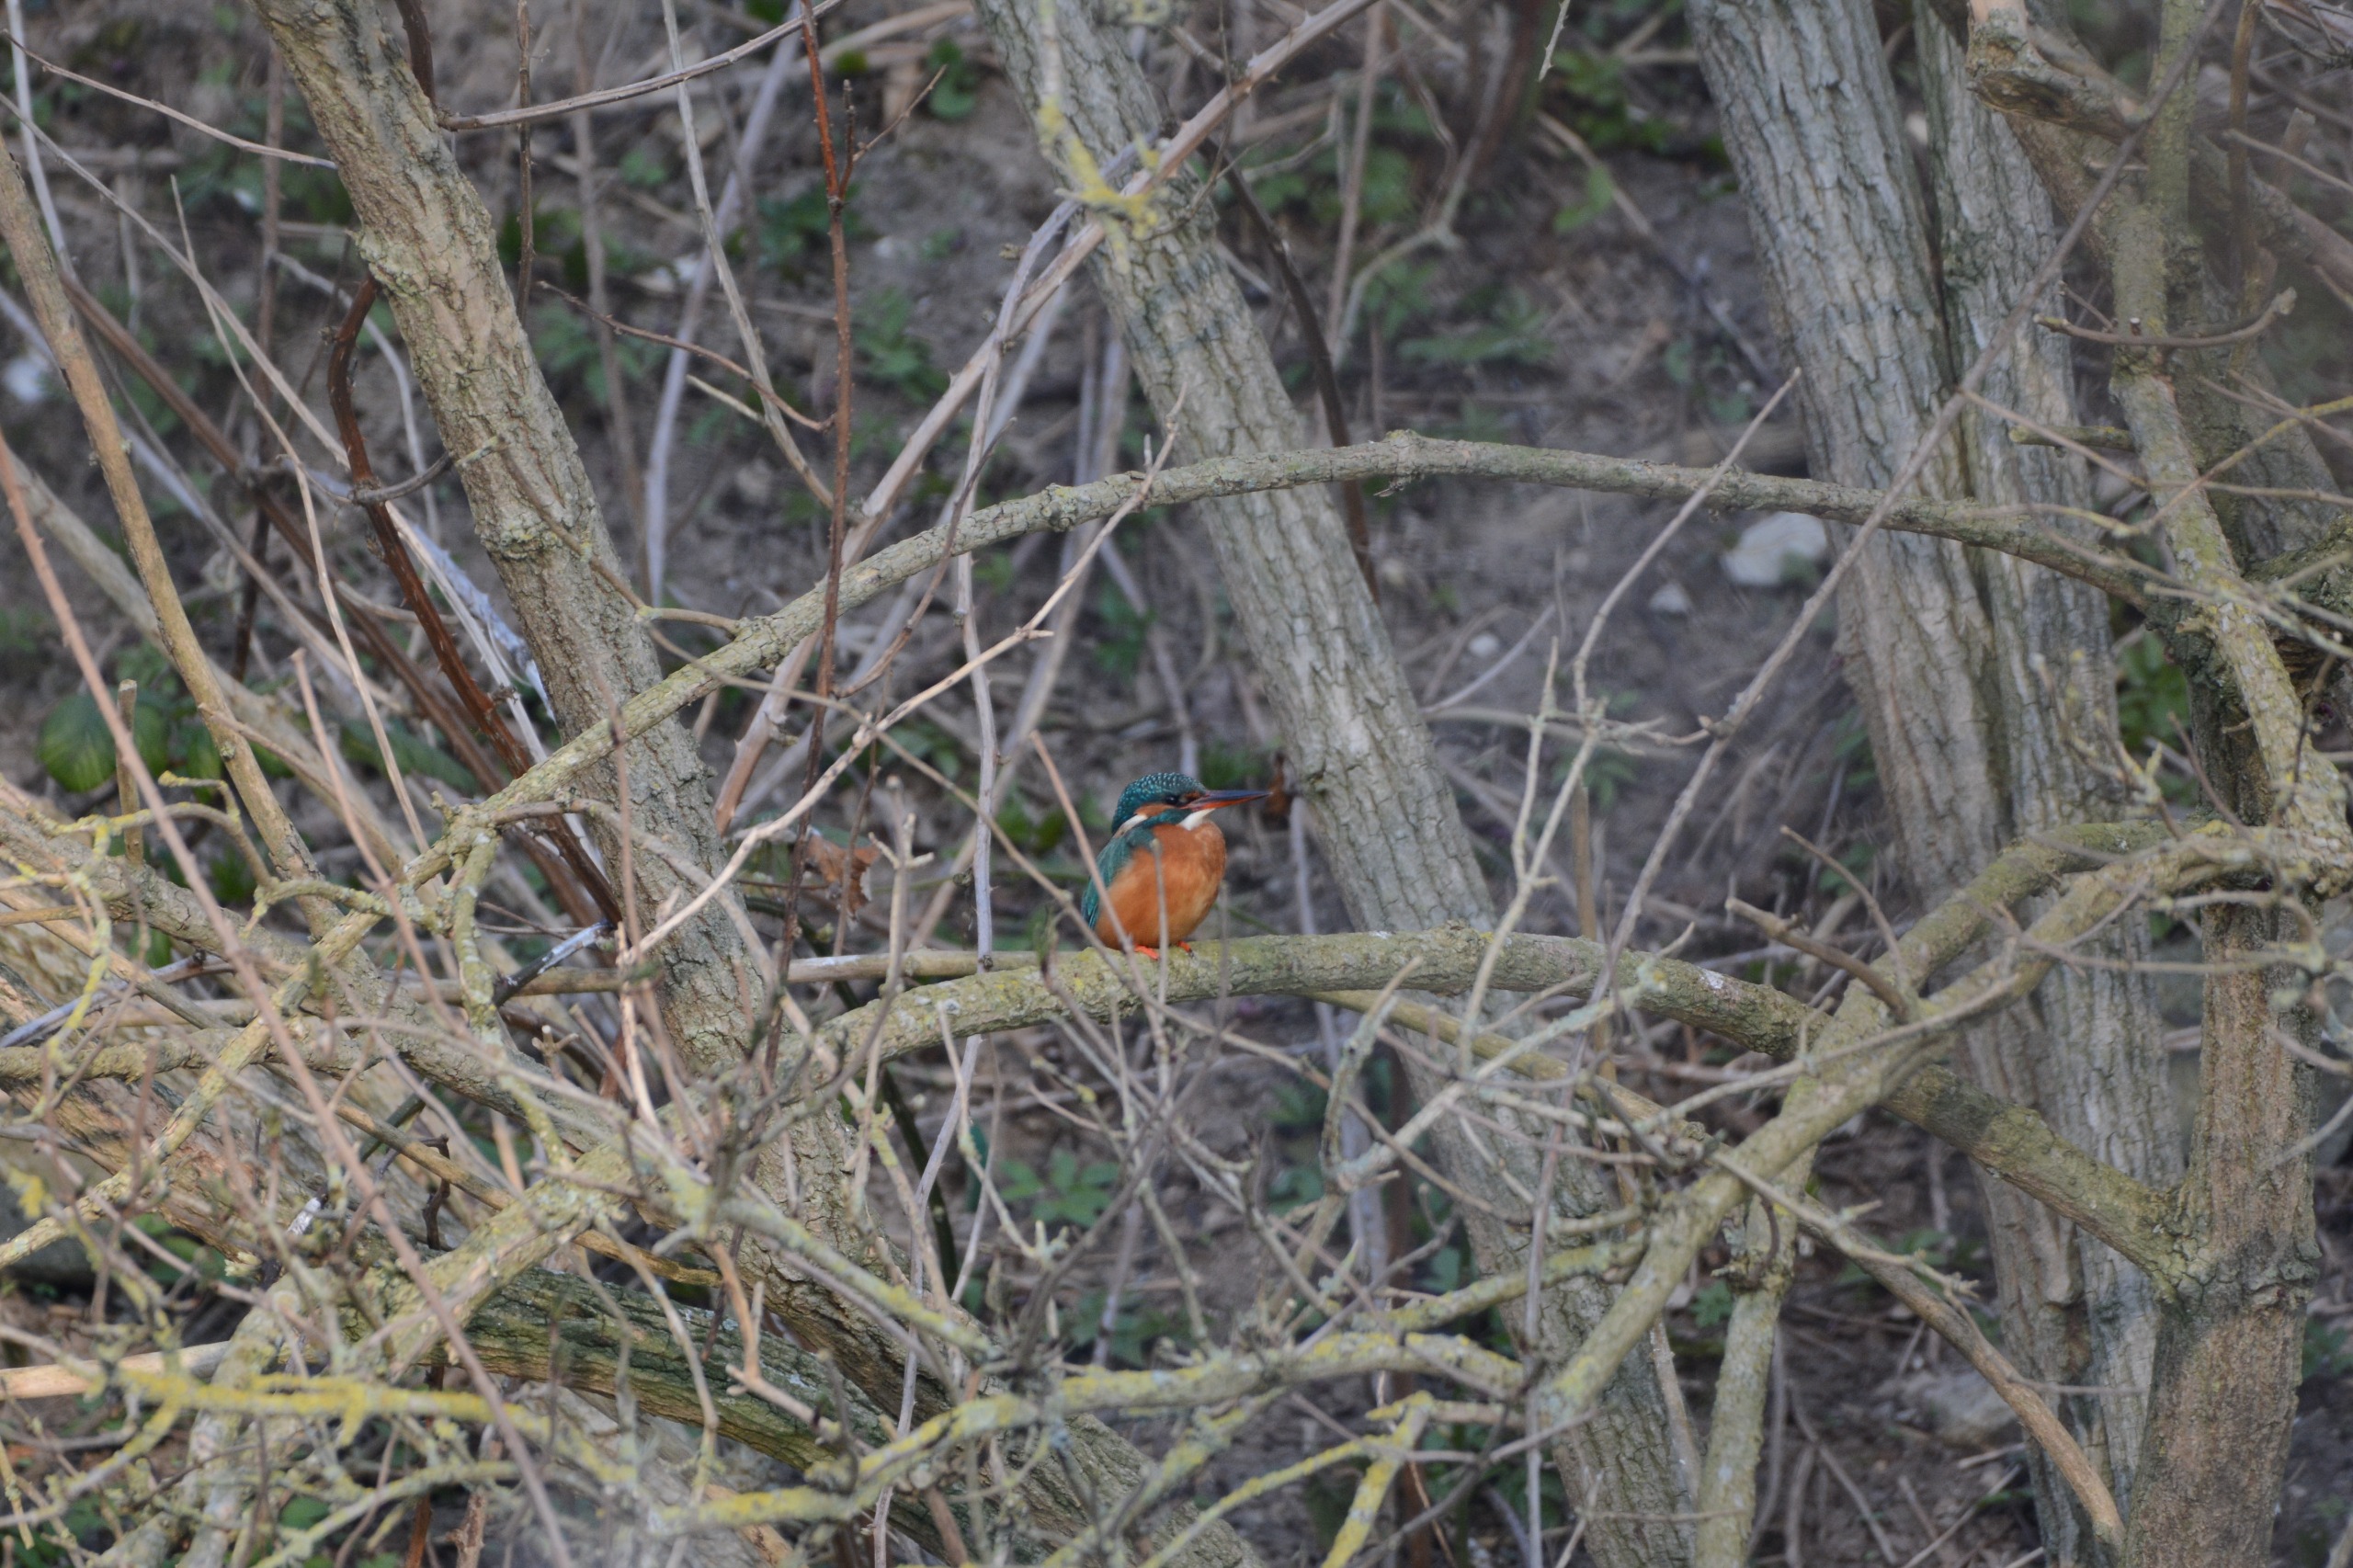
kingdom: Animalia
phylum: Chordata
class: Aves
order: Coraciiformes
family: Alcedinidae
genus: Alcedo
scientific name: Alcedo atthis
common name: Isfugl
